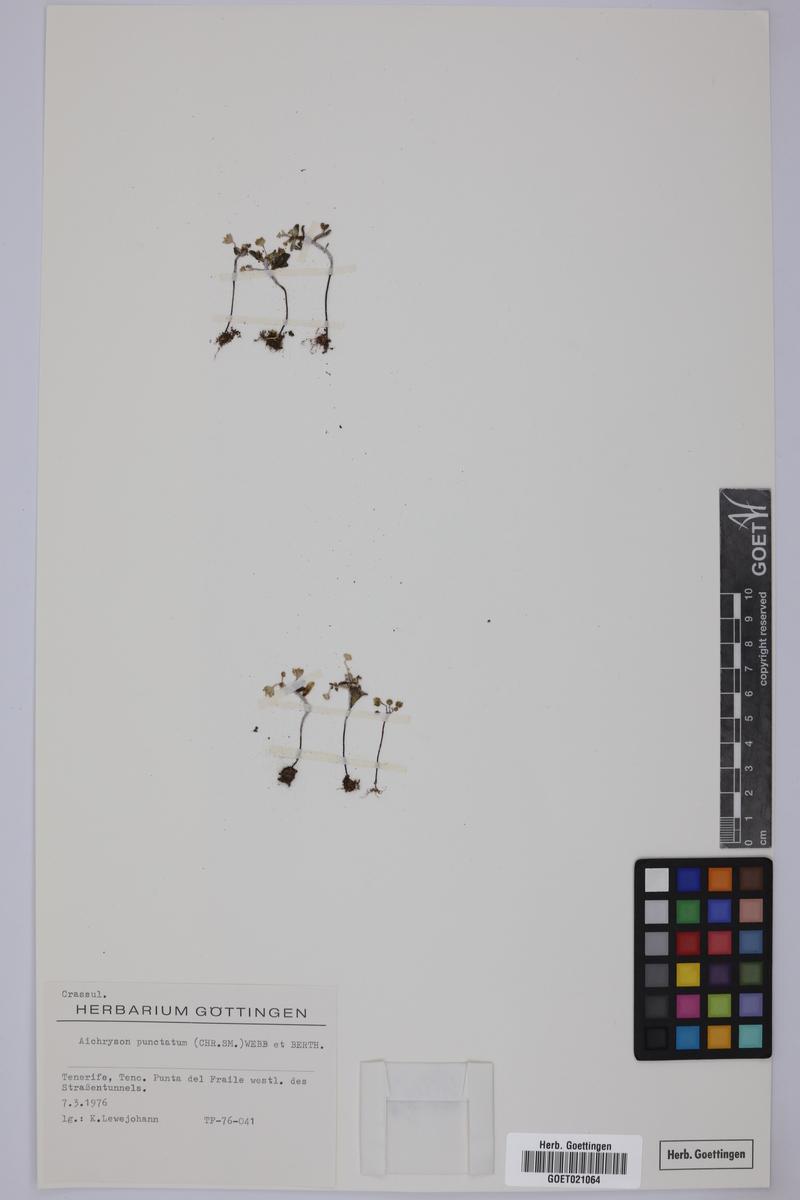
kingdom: Plantae
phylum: Tracheophyta
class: Magnoliopsida
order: Saxifragales
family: Crassulaceae
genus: Aichryson
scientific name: Aichryson punctatum
